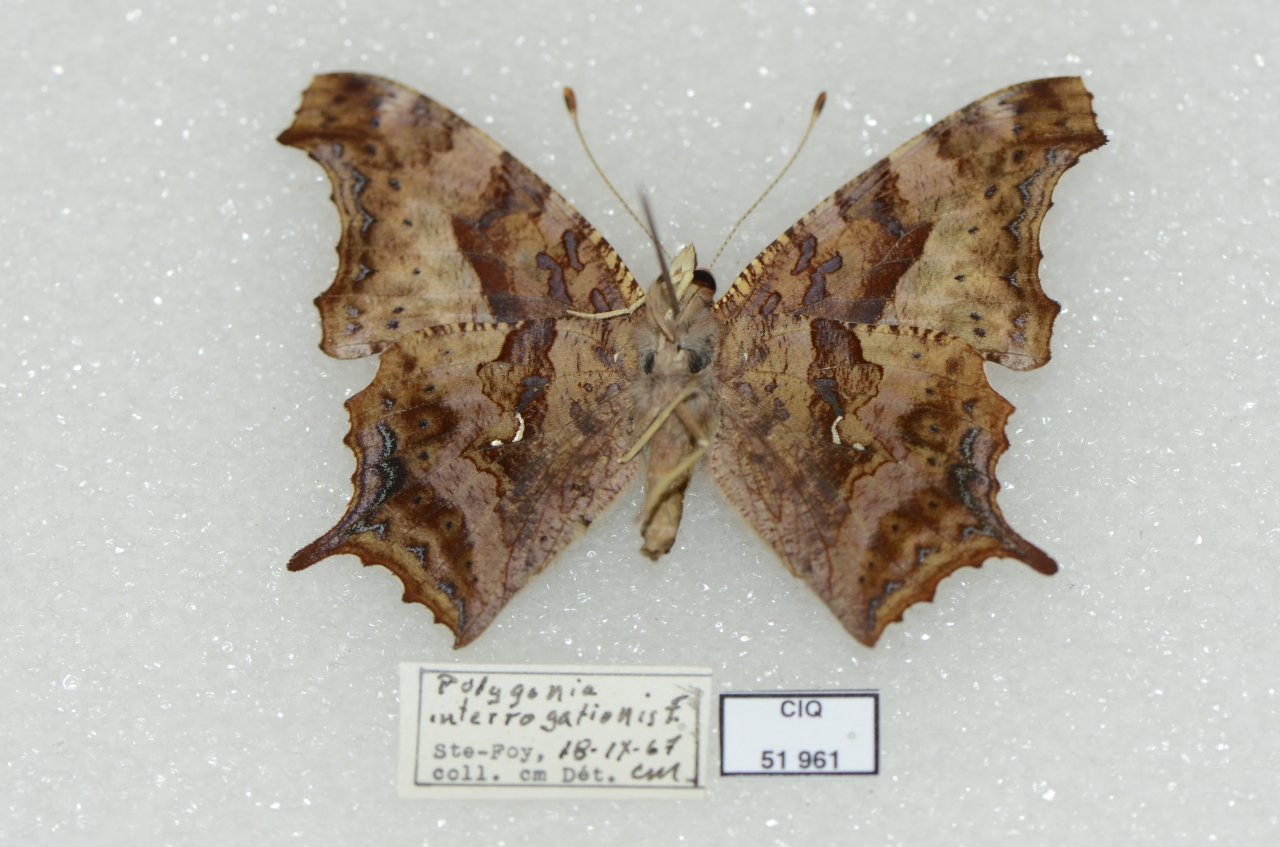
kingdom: Animalia
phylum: Arthropoda
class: Insecta
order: Lepidoptera
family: Nymphalidae
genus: Polygonia
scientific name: Polygonia interrogationis
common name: Question Mark
